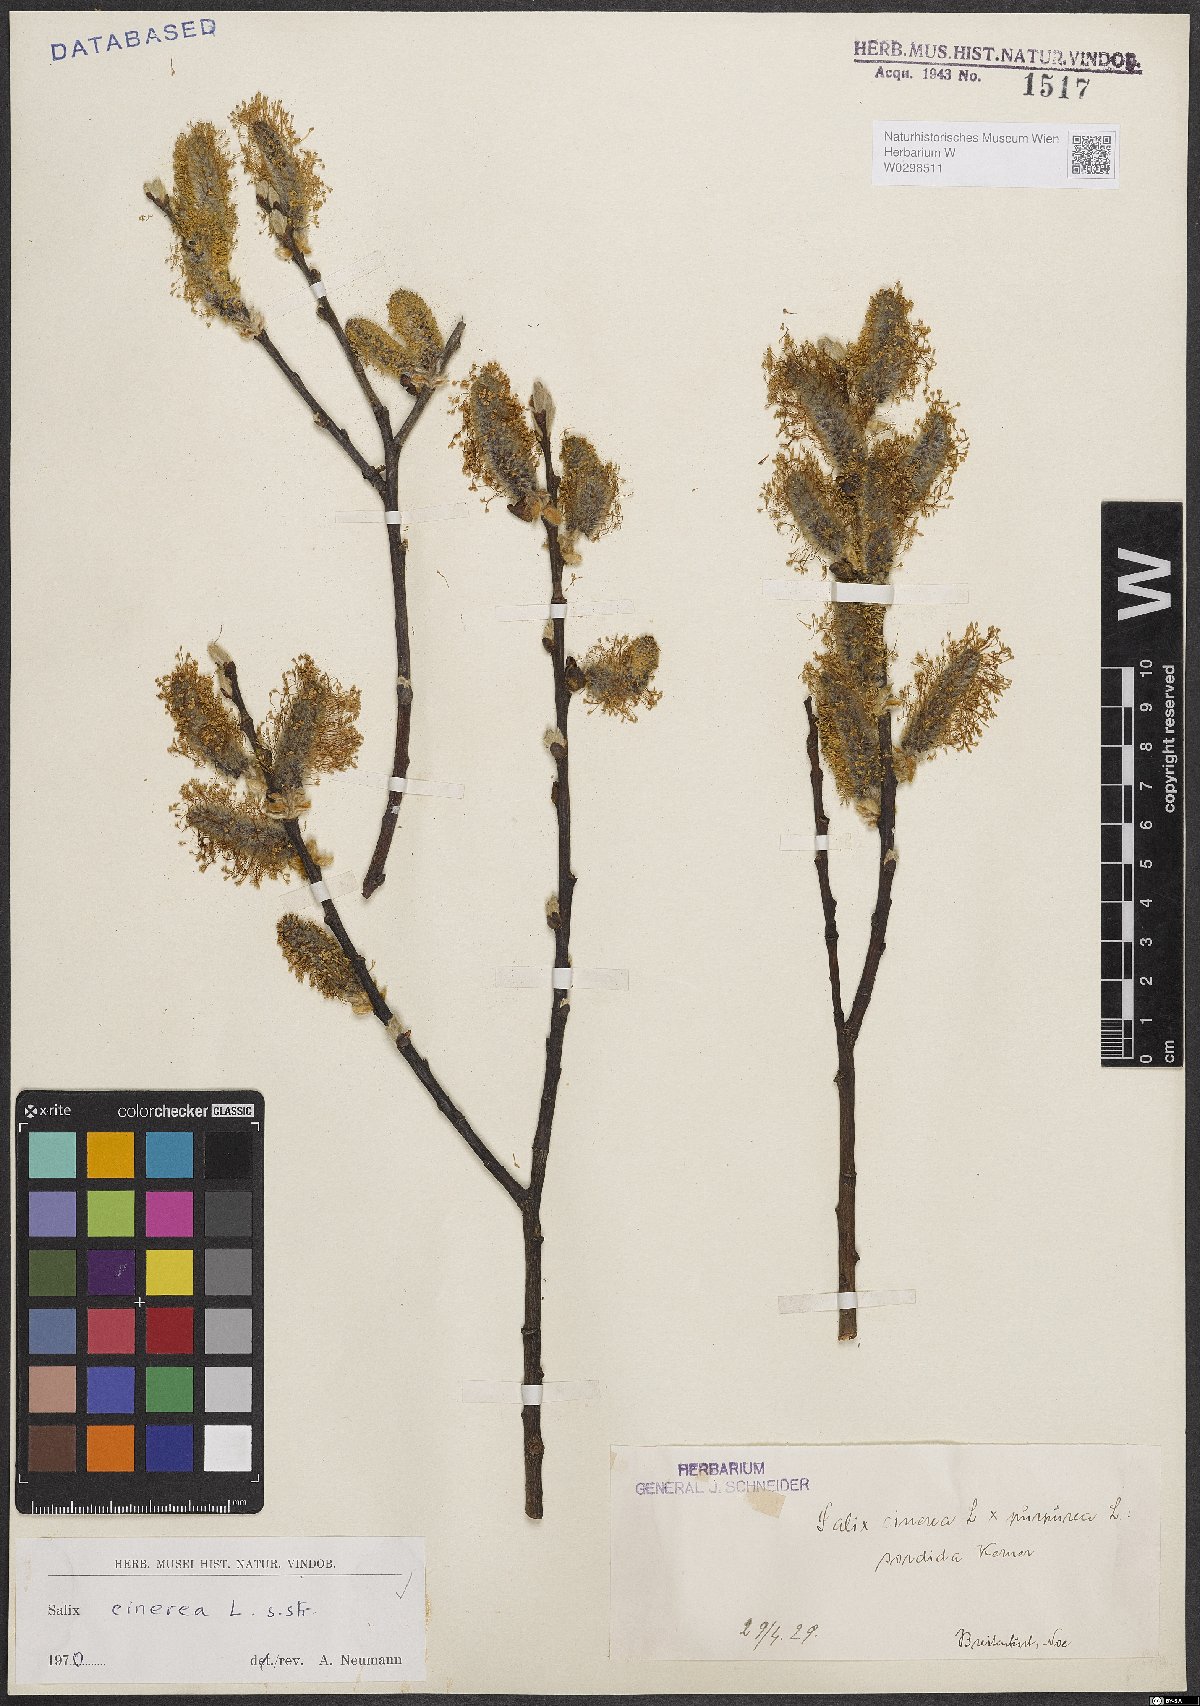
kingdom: Plantae
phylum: Tracheophyta
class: Magnoliopsida
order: Malpighiales
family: Salicaceae
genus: Salix
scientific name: Salix cinerea
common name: Common sallow
